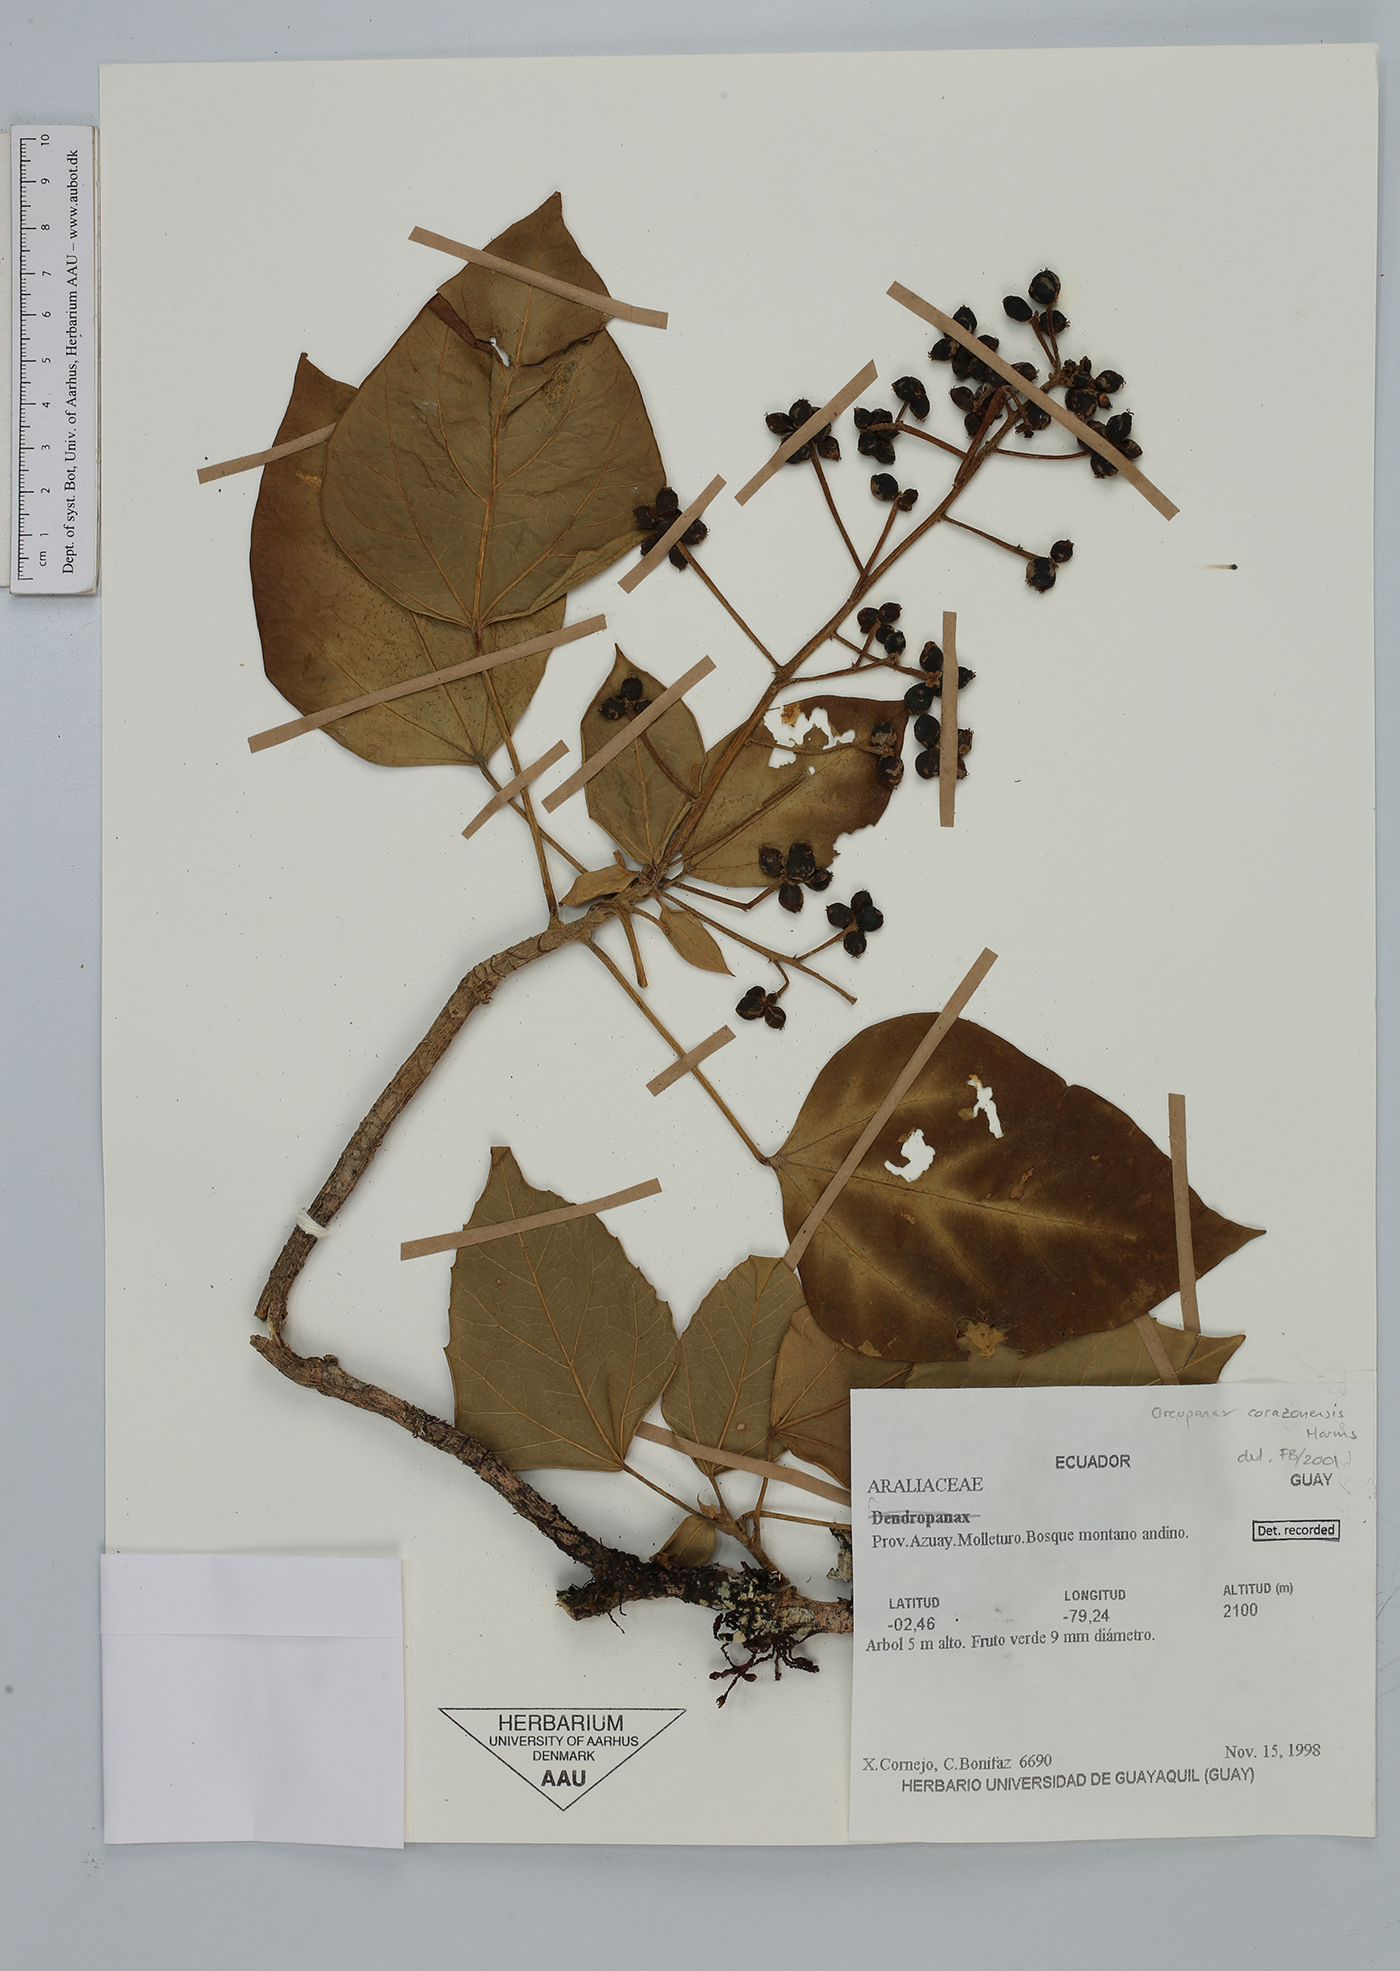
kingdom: Plantae
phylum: Tracheophyta
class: Magnoliopsida
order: Apiales
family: Araliaceae
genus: Oreopanax
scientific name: Oreopanax corazonensis
